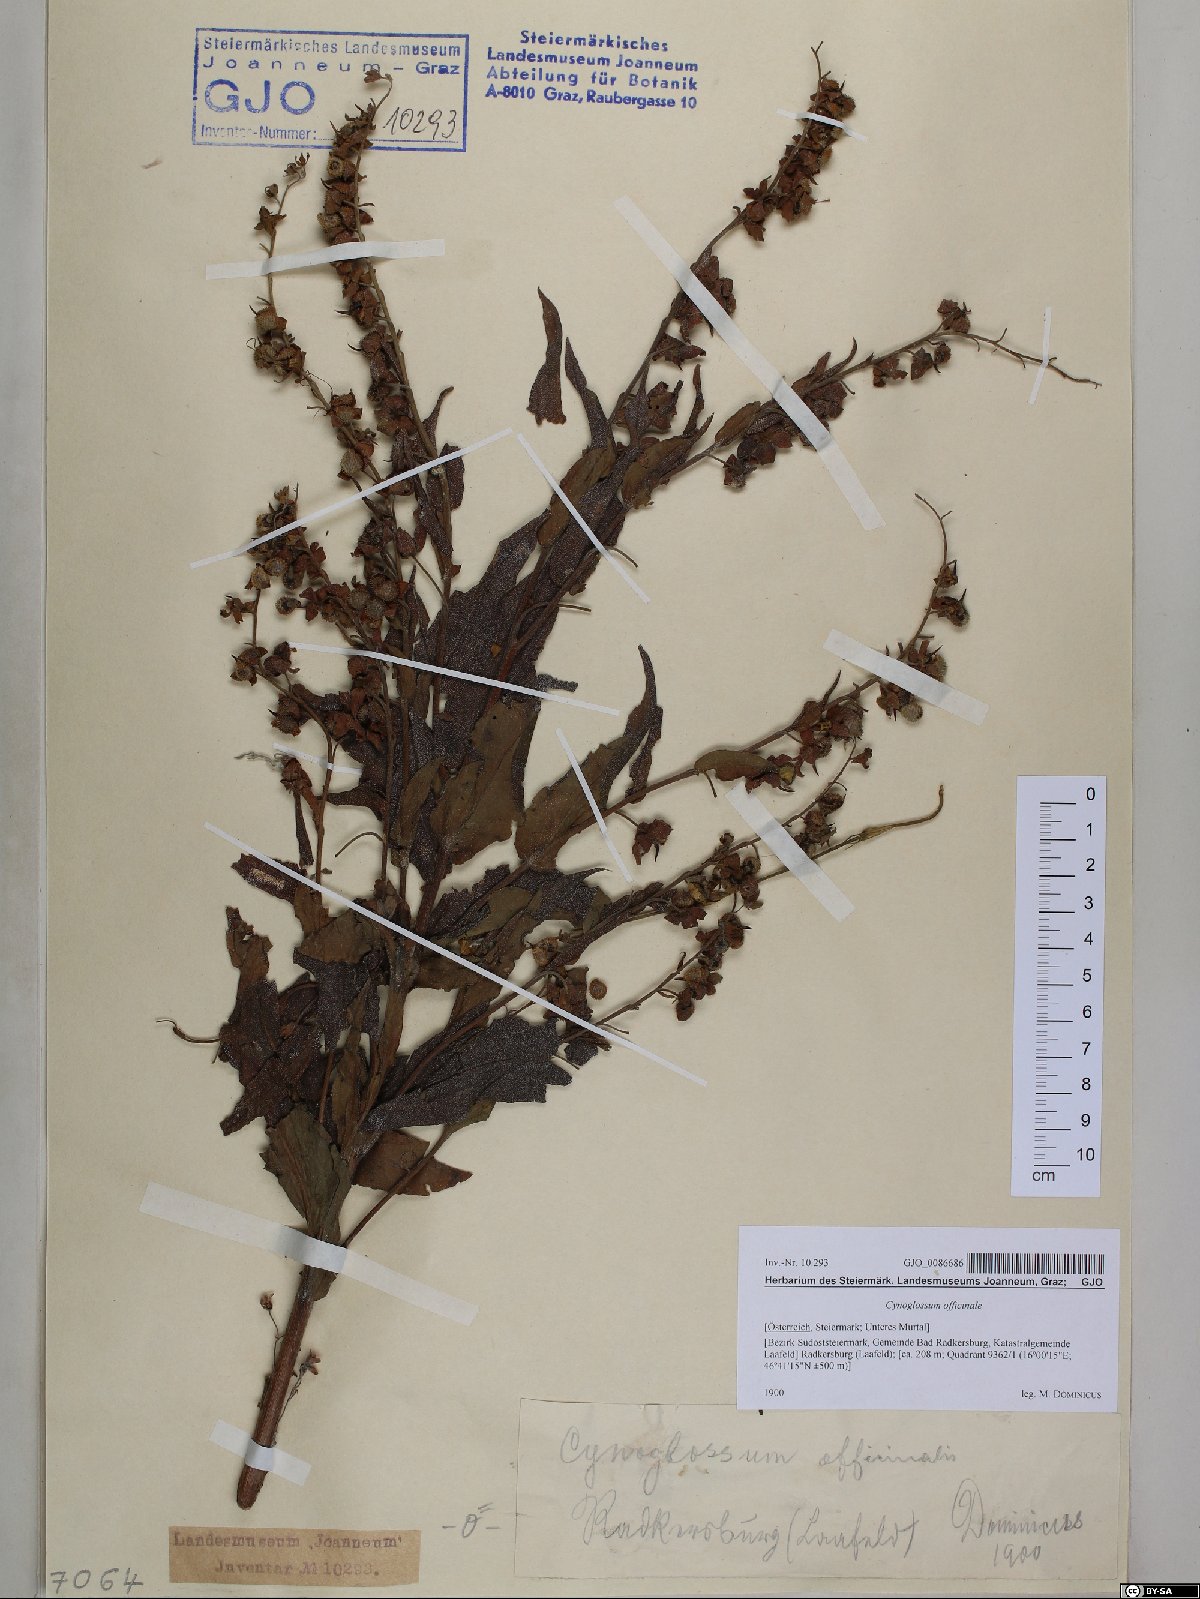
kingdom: Plantae
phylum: Tracheophyta
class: Magnoliopsida
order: Boraginales
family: Boraginaceae
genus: Cynoglossum
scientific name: Cynoglossum officinale
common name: Hound's-tongue
